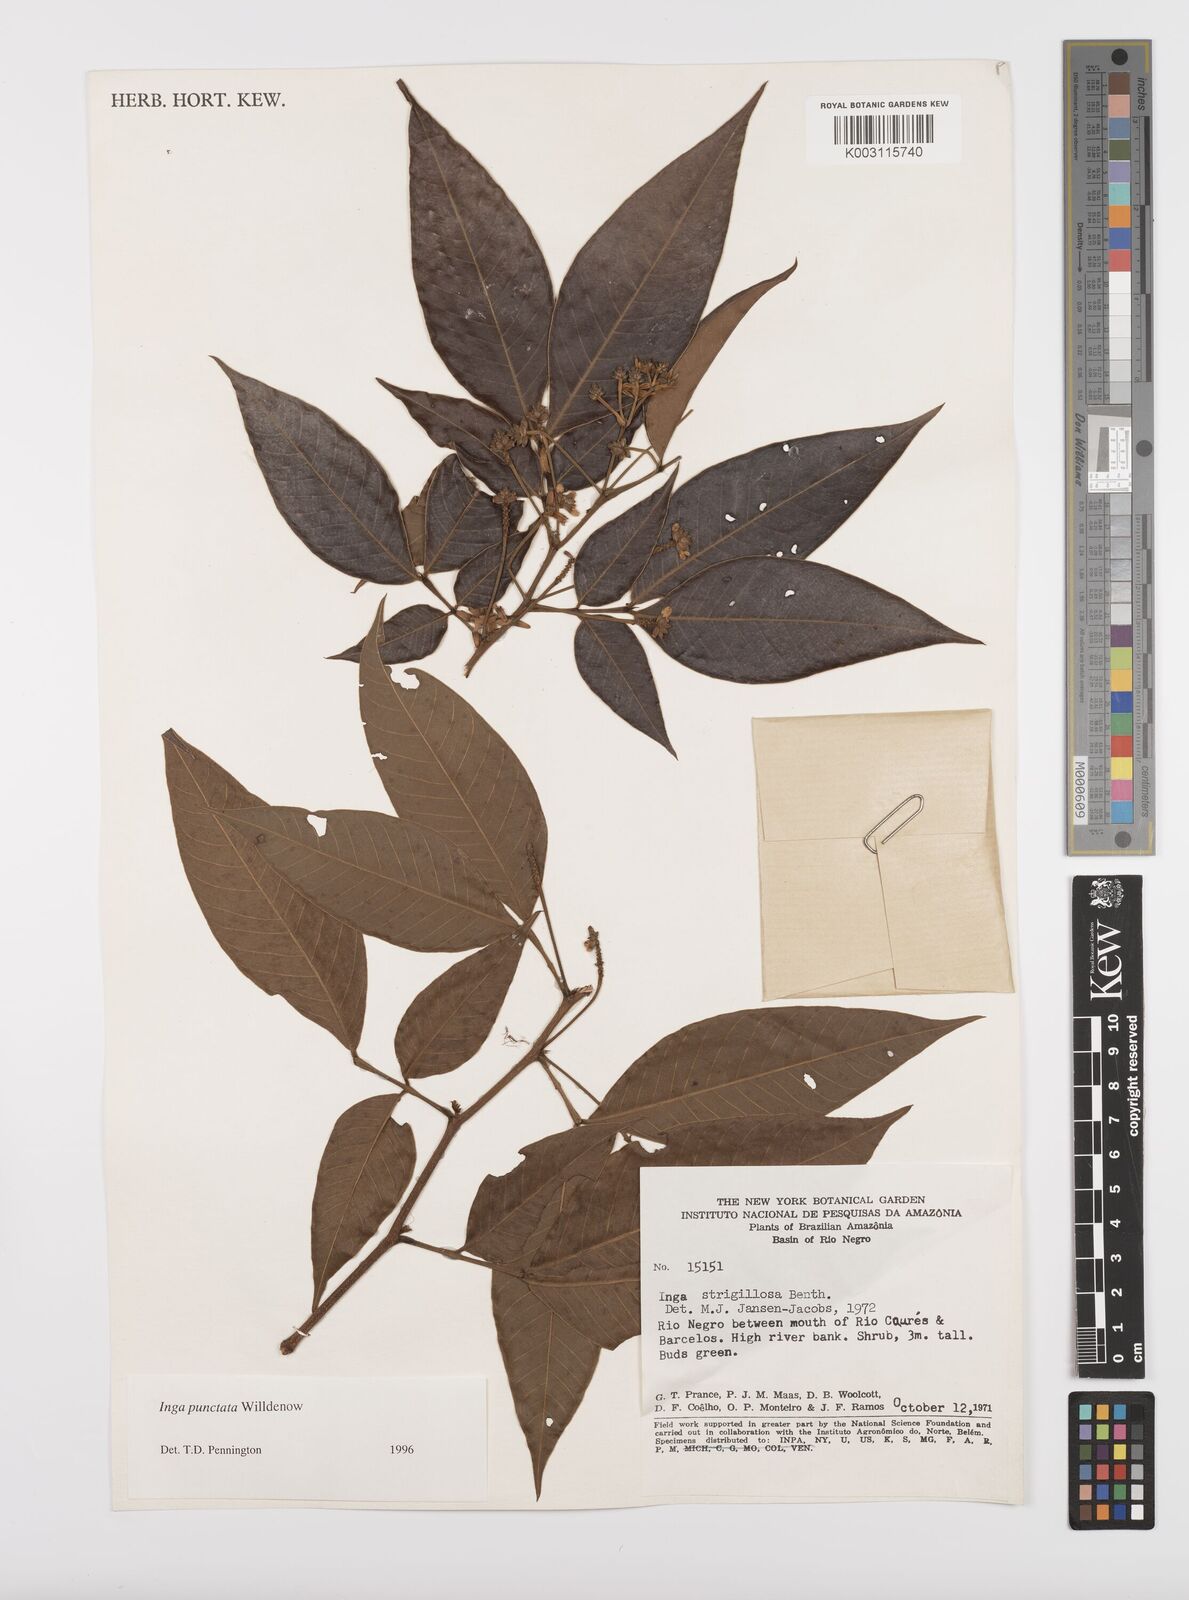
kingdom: Plantae
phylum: Tracheophyta
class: Magnoliopsida
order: Fabales
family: Fabaceae
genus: Inga
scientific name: Inga punctata
